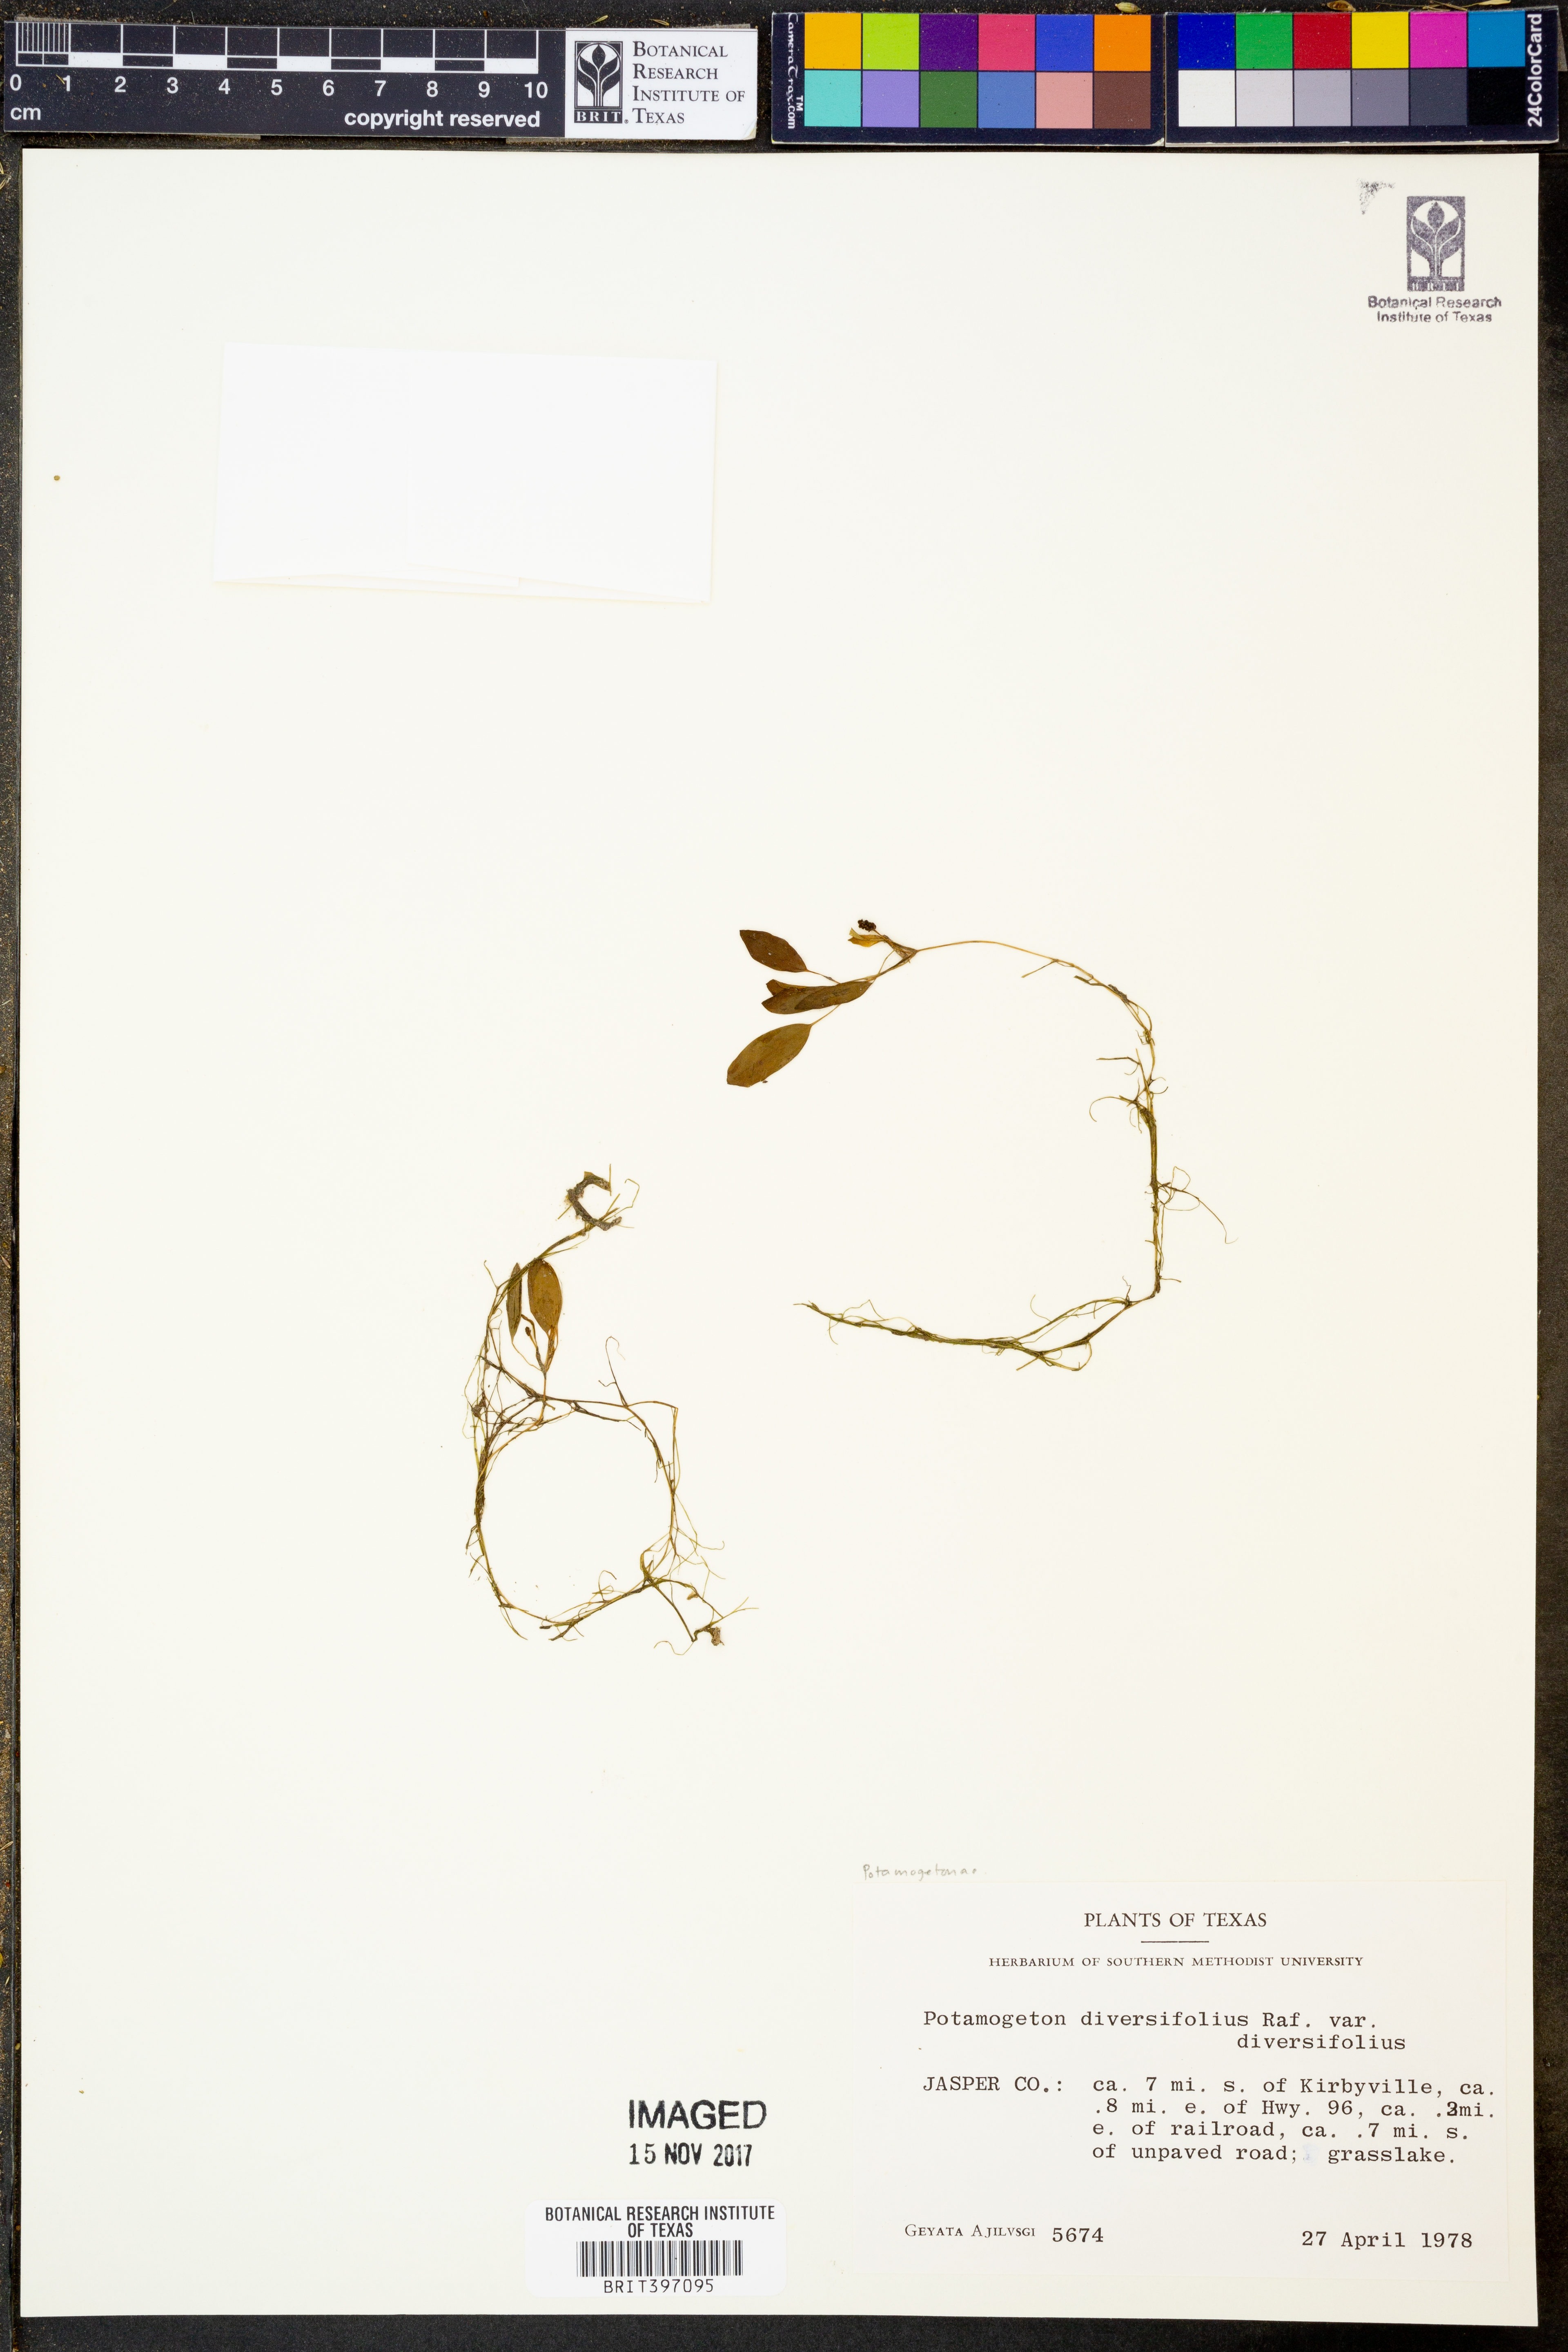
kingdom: Plantae
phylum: Tracheophyta
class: Liliopsida
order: Alismatales
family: Potamogetonaceae
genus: Potamogeton
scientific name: Potamogeton diversifolius
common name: Water-thread pondweed
